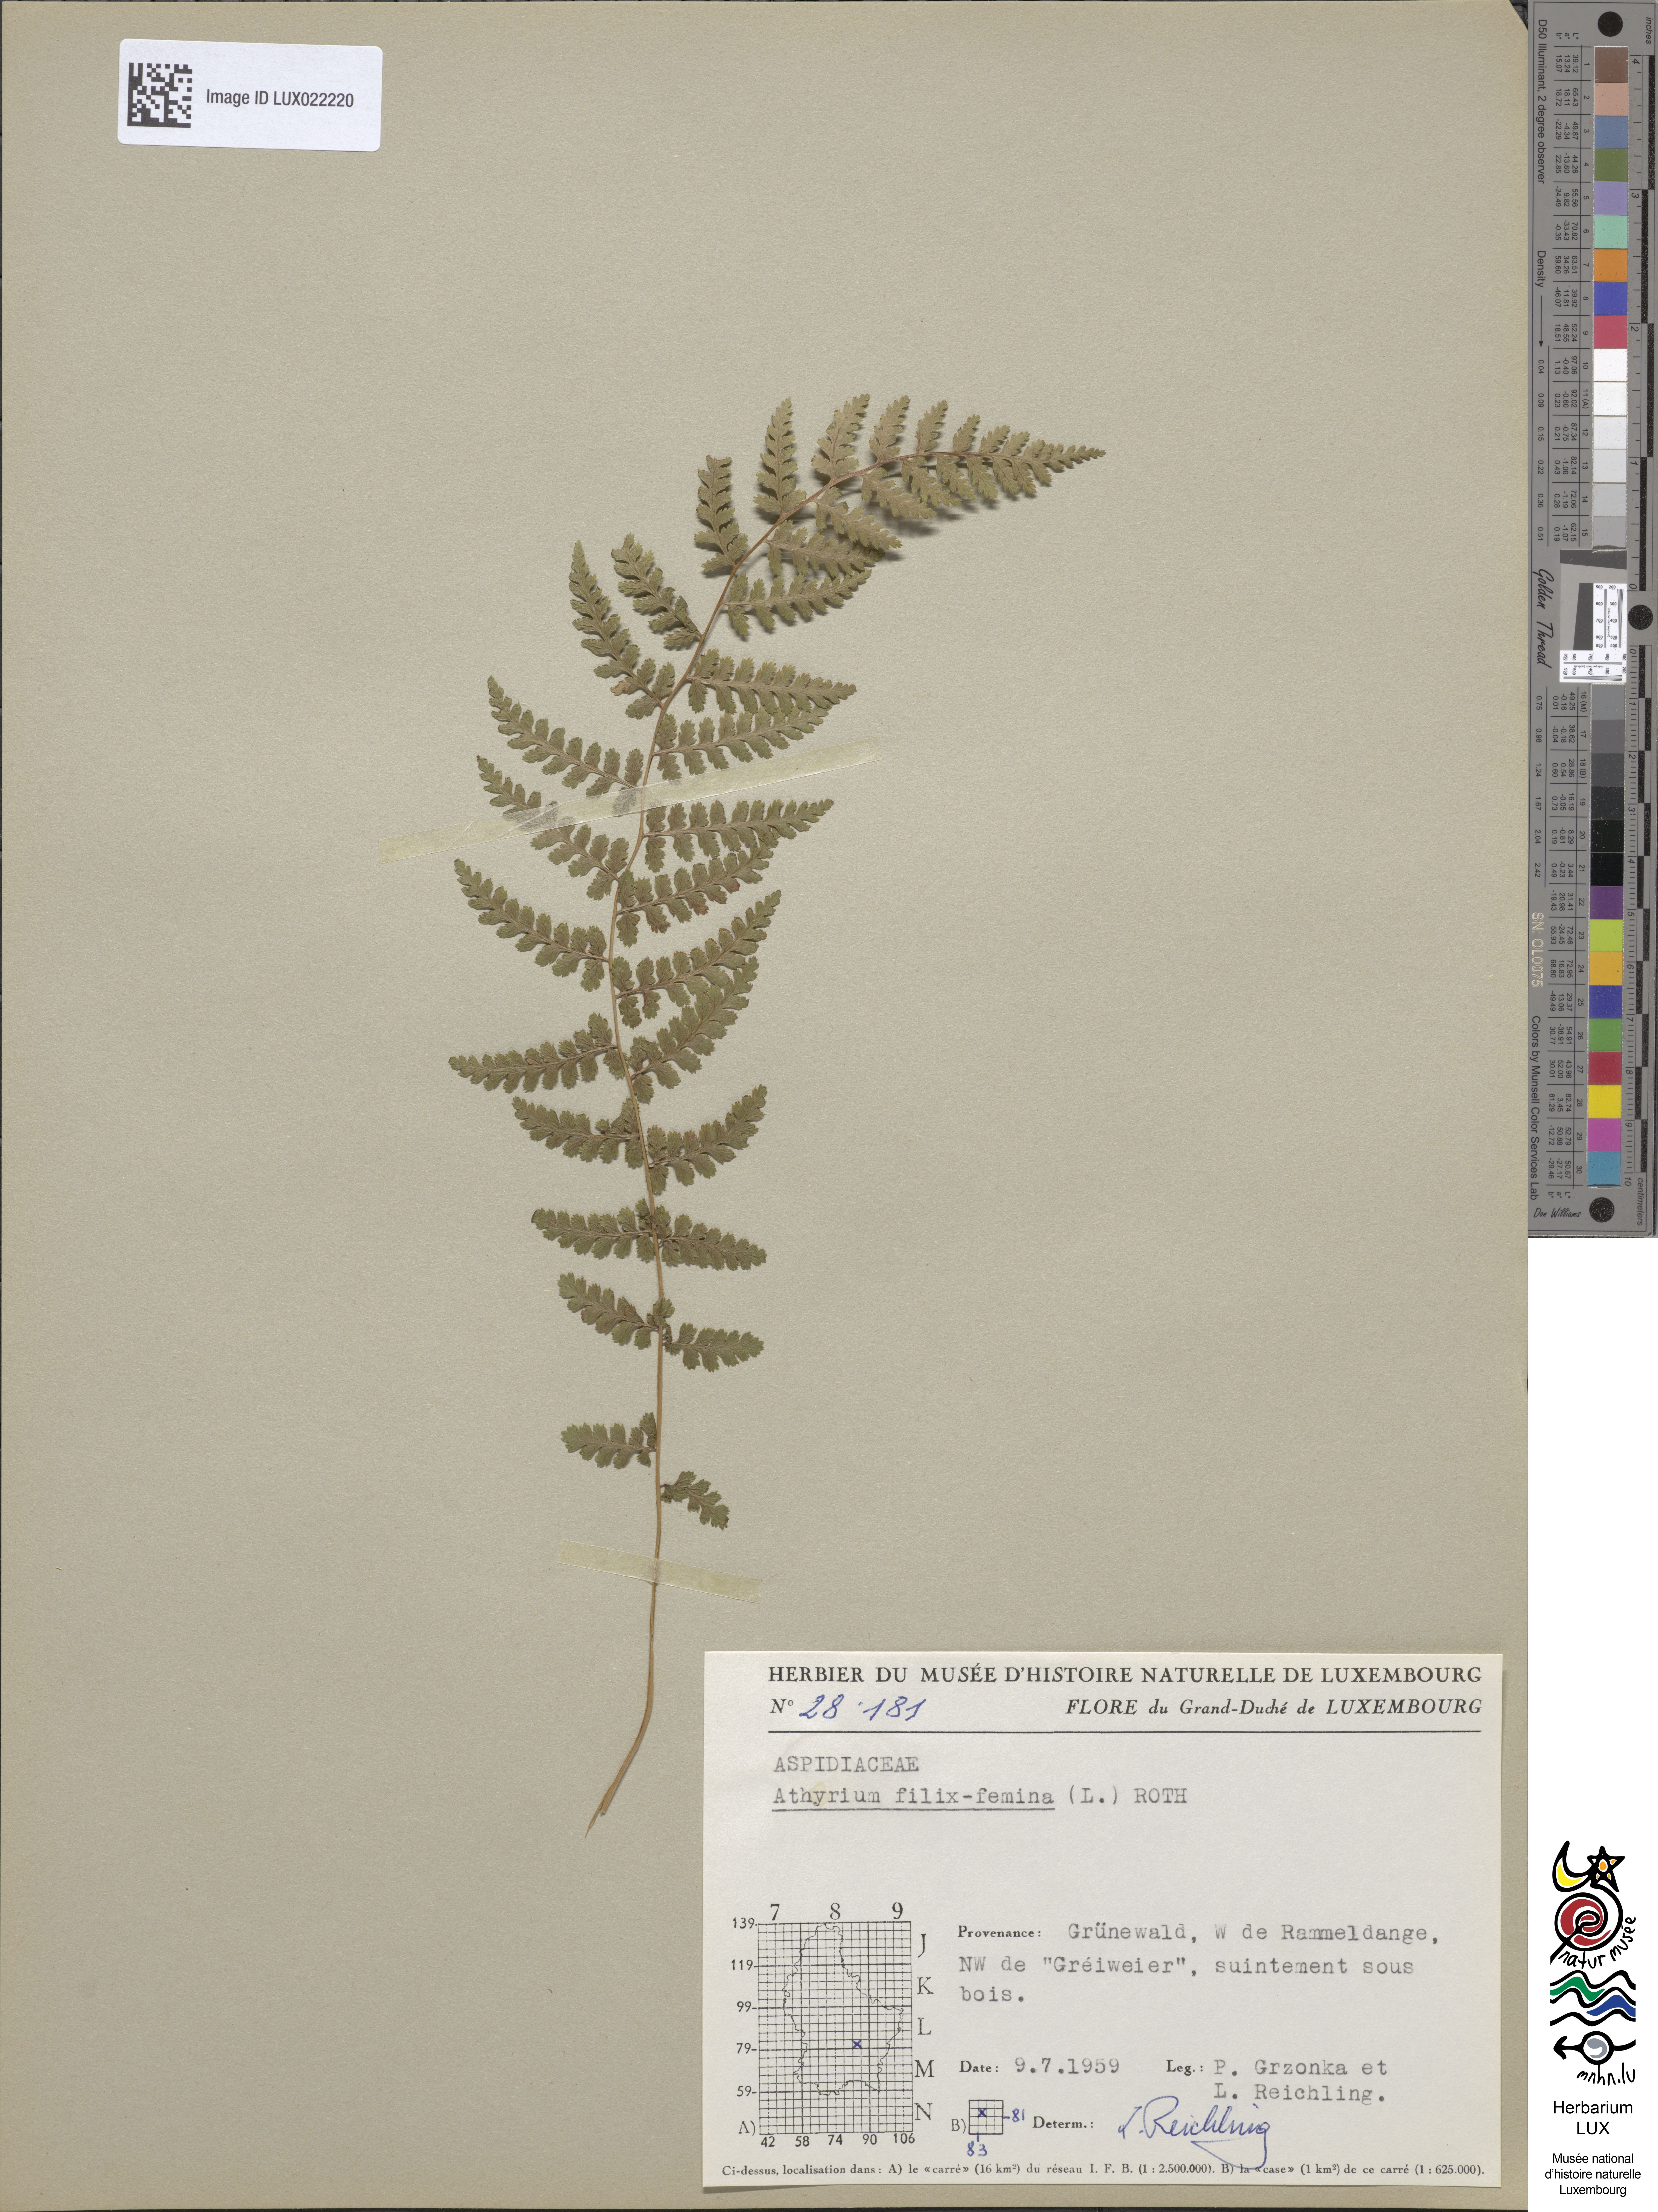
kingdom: Plantae
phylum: Tracheophyta
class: Polypodiopsida
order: Polypodiales
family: Athyriaceae
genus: Athyrium
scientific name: Athyrium filix-femina
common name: Lady fern
